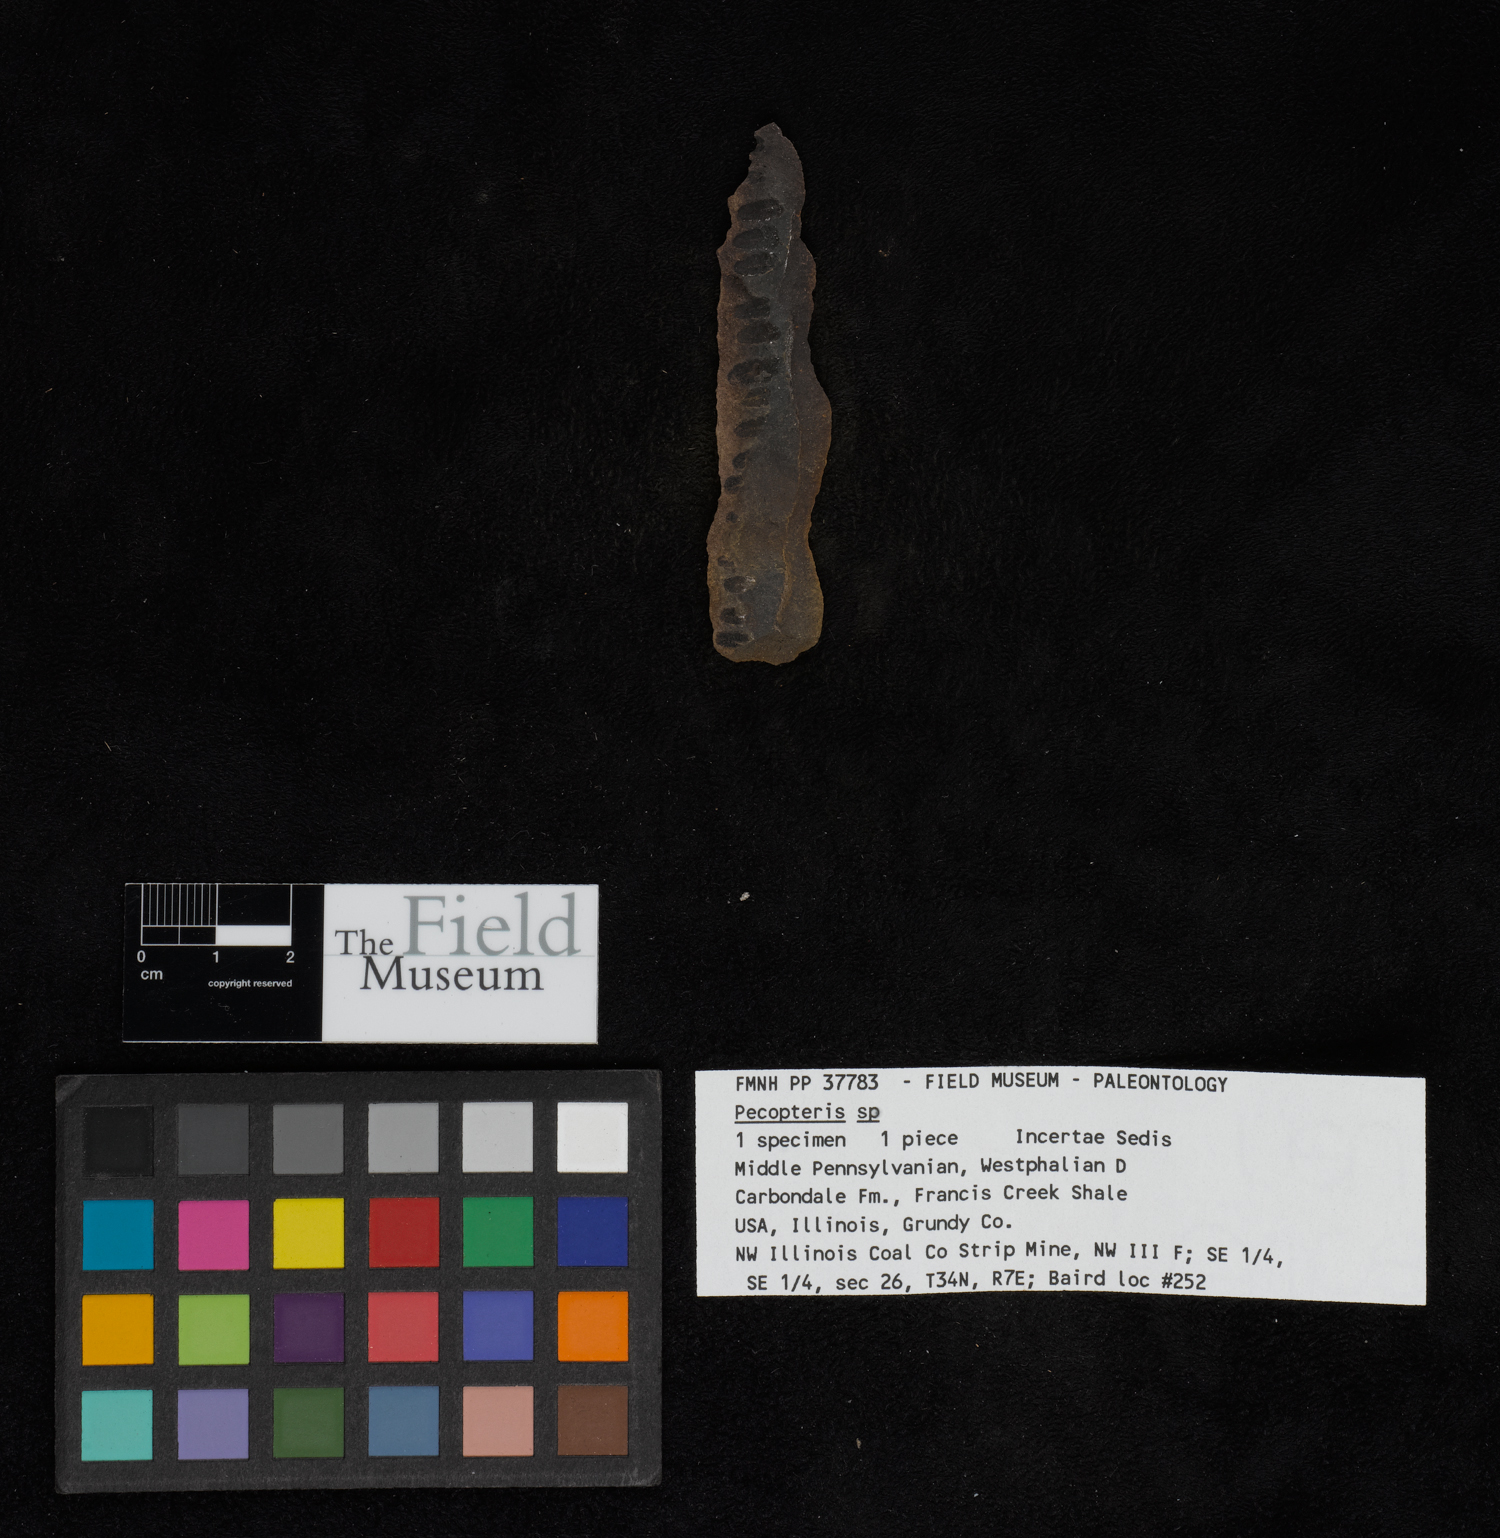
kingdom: Plantae
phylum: Tracheophyta
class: Polypodiopsida
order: Marattiales
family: Asterothecaceae
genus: Pecopteris
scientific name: Pecopteris
